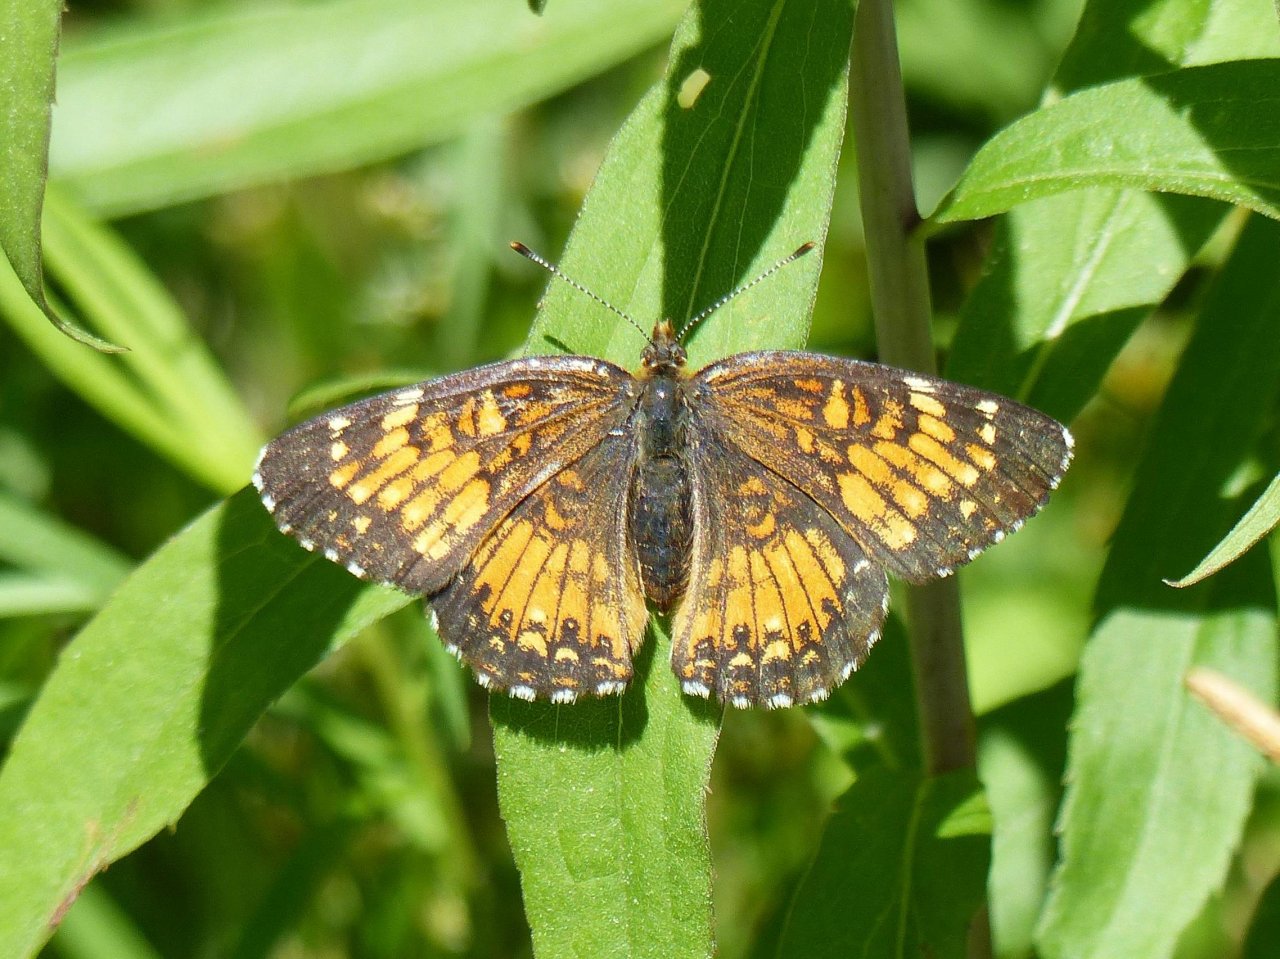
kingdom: Animalia
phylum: Arthropoda
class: Insecta
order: Lepidoptera
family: Nymphalidae
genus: Chlosyne
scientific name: Chlosyne harrisii
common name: Harris's Checkerspot
